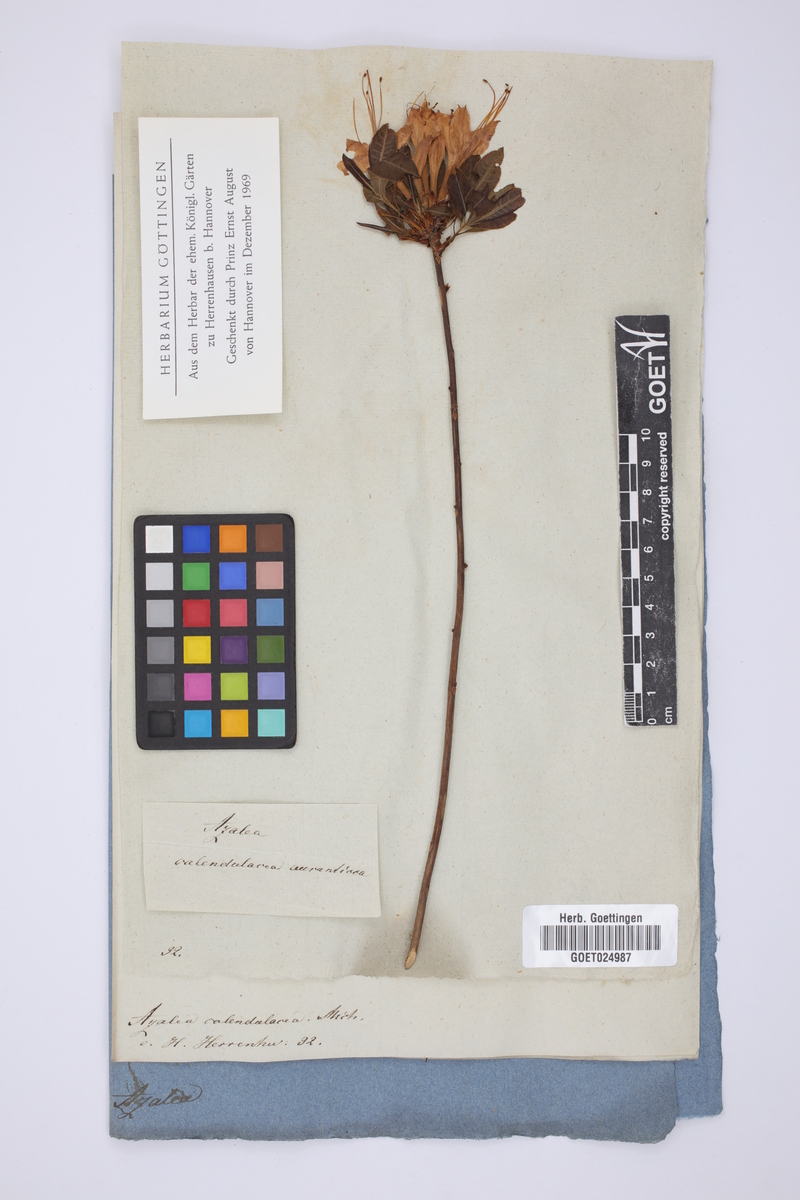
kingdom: Plantae
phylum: Tracheophyta
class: Magnoliopsida
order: Ericales
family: Ericaceae
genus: Rhododendron
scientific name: Rhododendron calendulaceum
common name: Flame azalea
